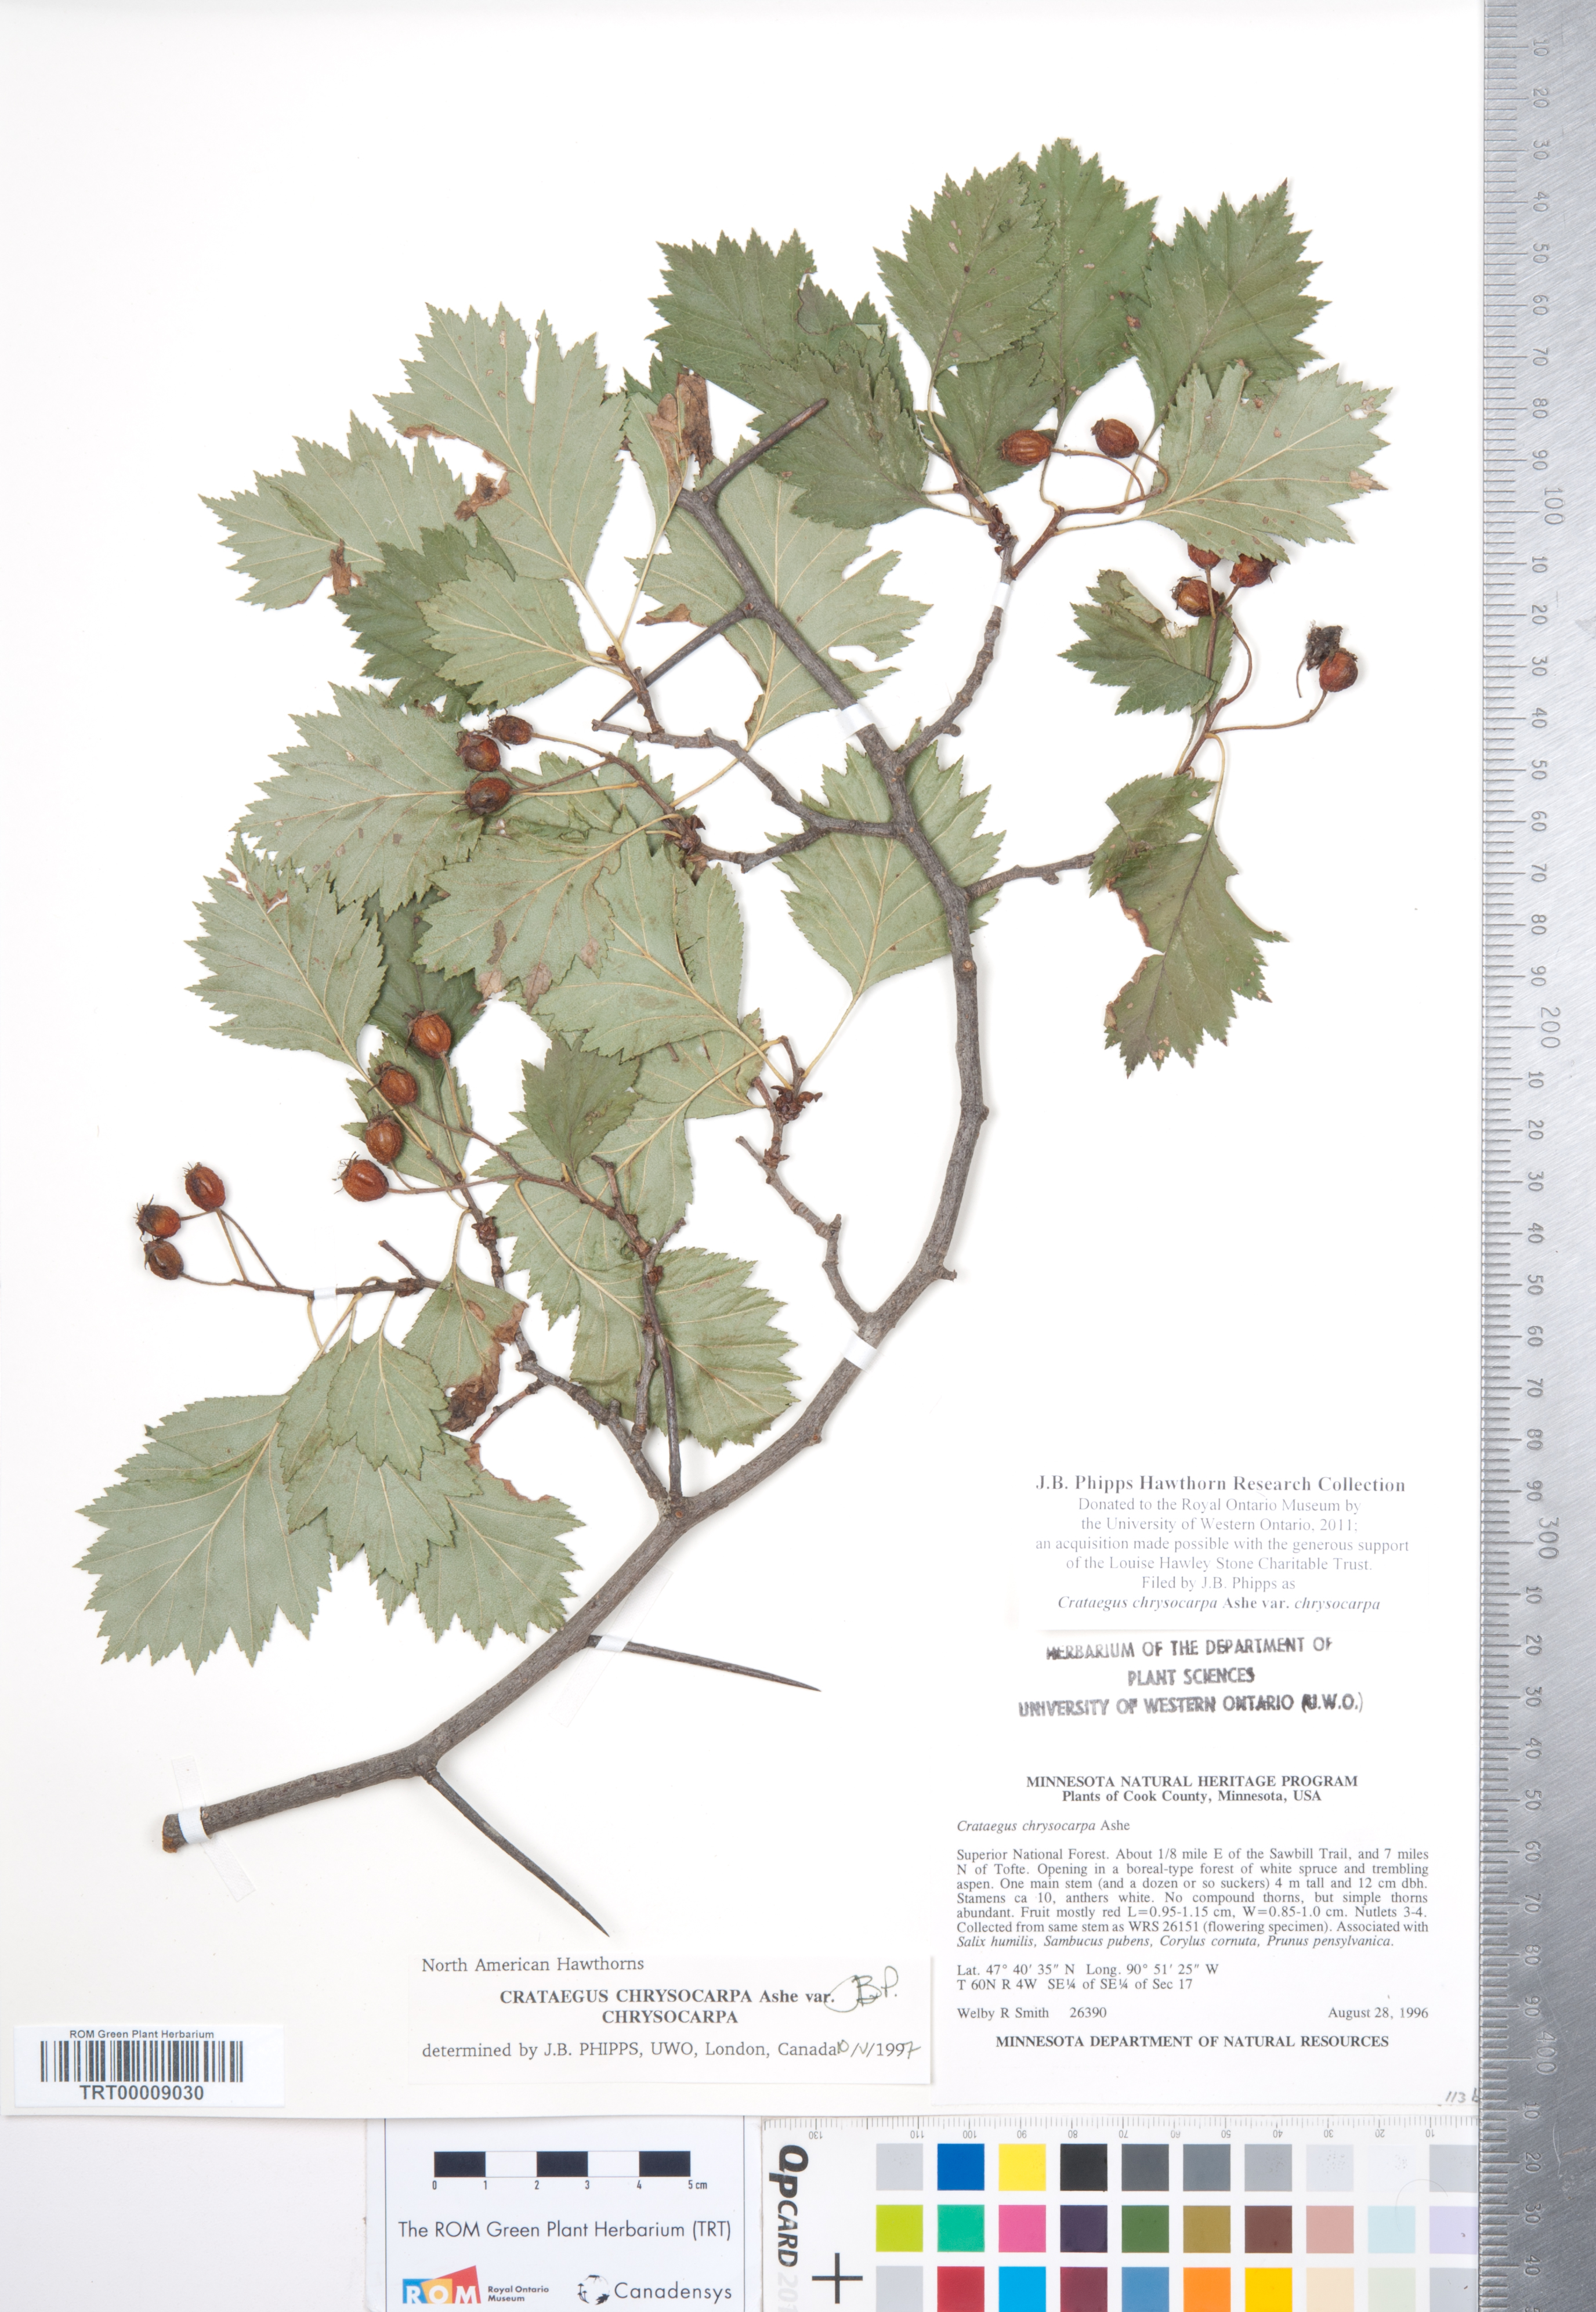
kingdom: Plantae
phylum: Tracheophyta
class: Magnoliopsida
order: Rosales
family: Rosaceae
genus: Crataegus
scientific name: Crataegus chrysocarpa
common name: Fire-berry hawthorn
